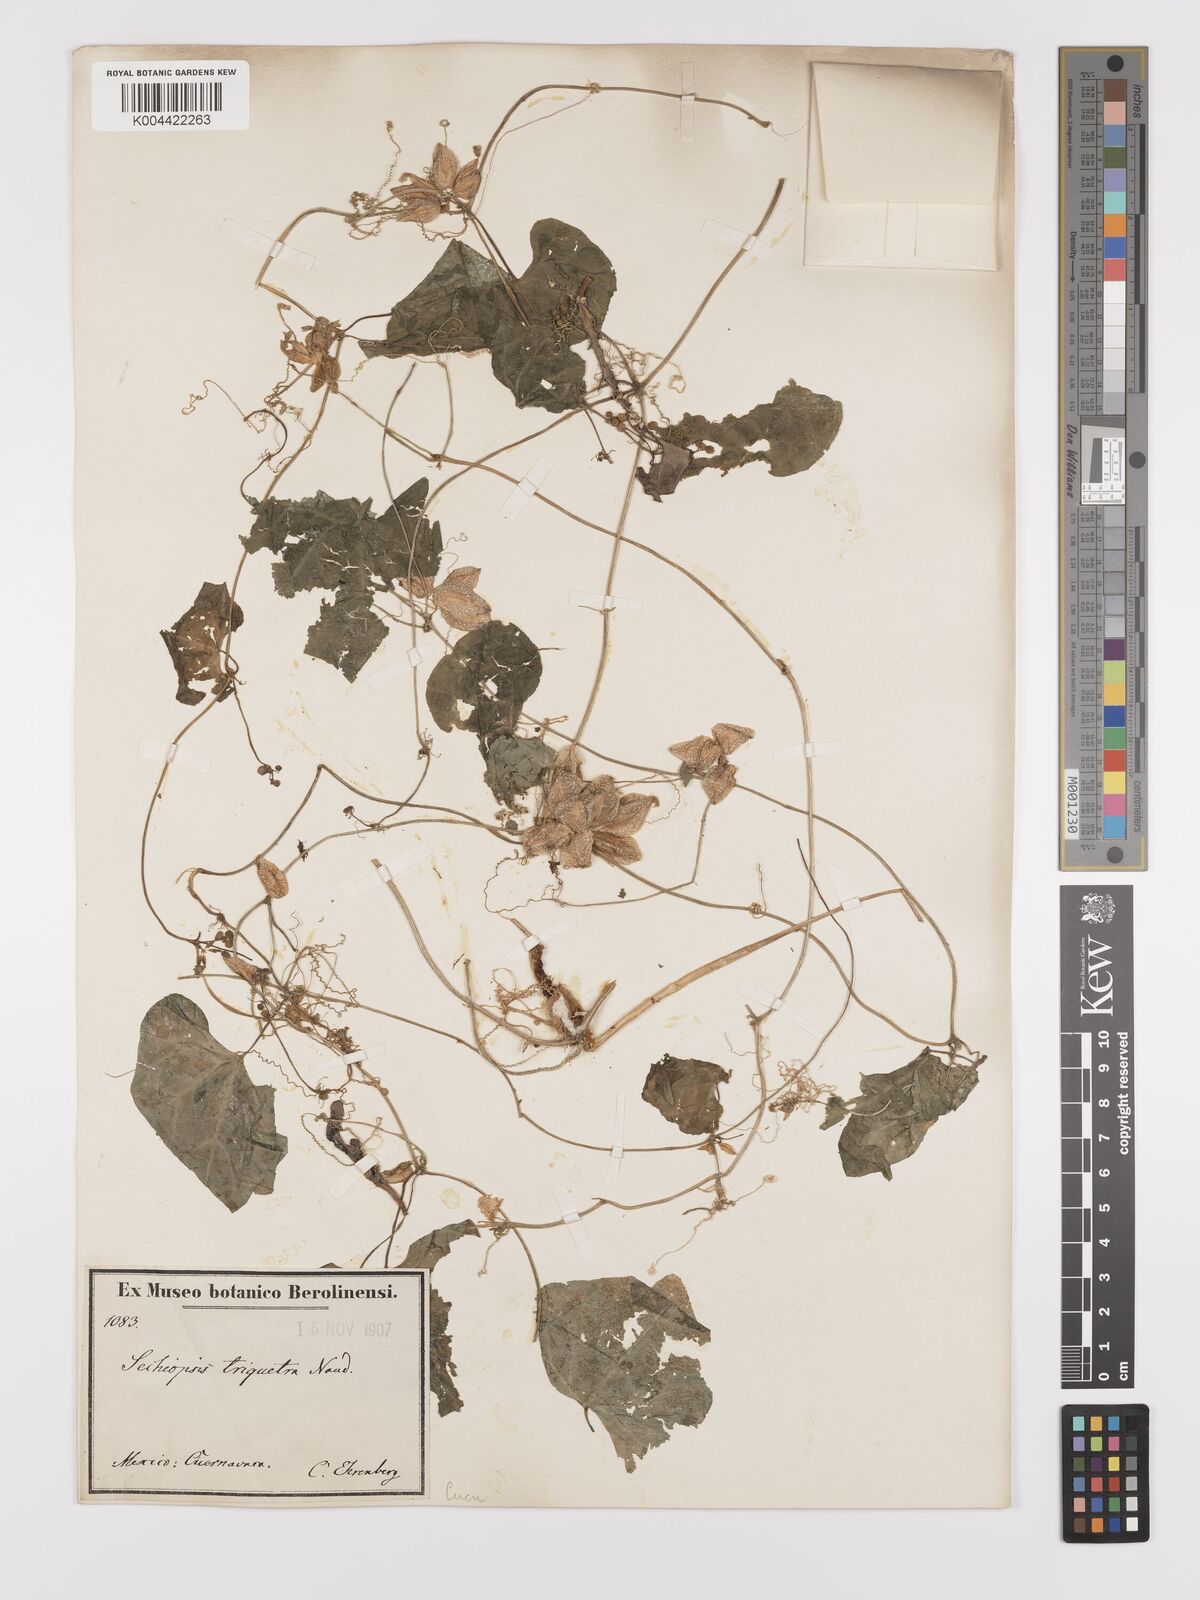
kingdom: Plantae
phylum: Tracheophyta
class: Magnoliopsida
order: Cucurbitales
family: Cucurbitaceae
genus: Sechiopsis
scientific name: Sechiopsis triqueter
